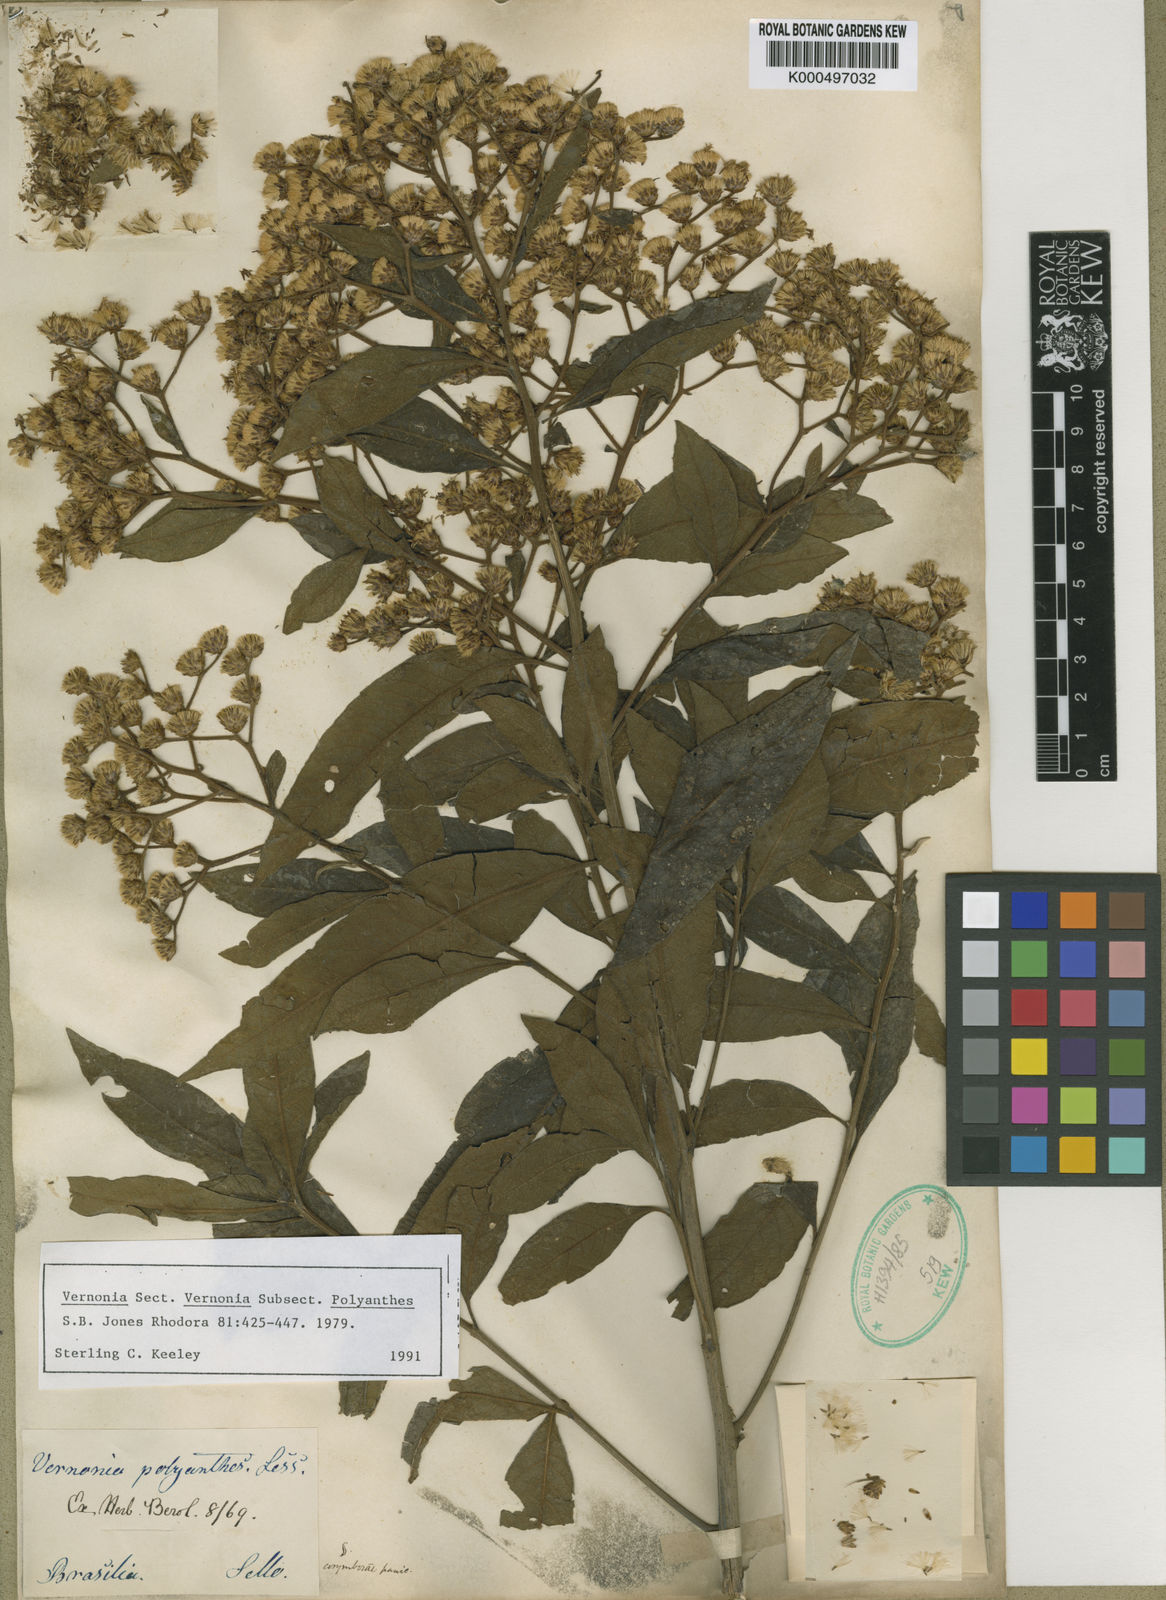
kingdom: Plantae
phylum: Tracheophyta
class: Magnoliopsida
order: Asterales
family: Asteraceae
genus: Vernonanthura
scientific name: Vernonanthura polyanthes
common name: Tree aster
